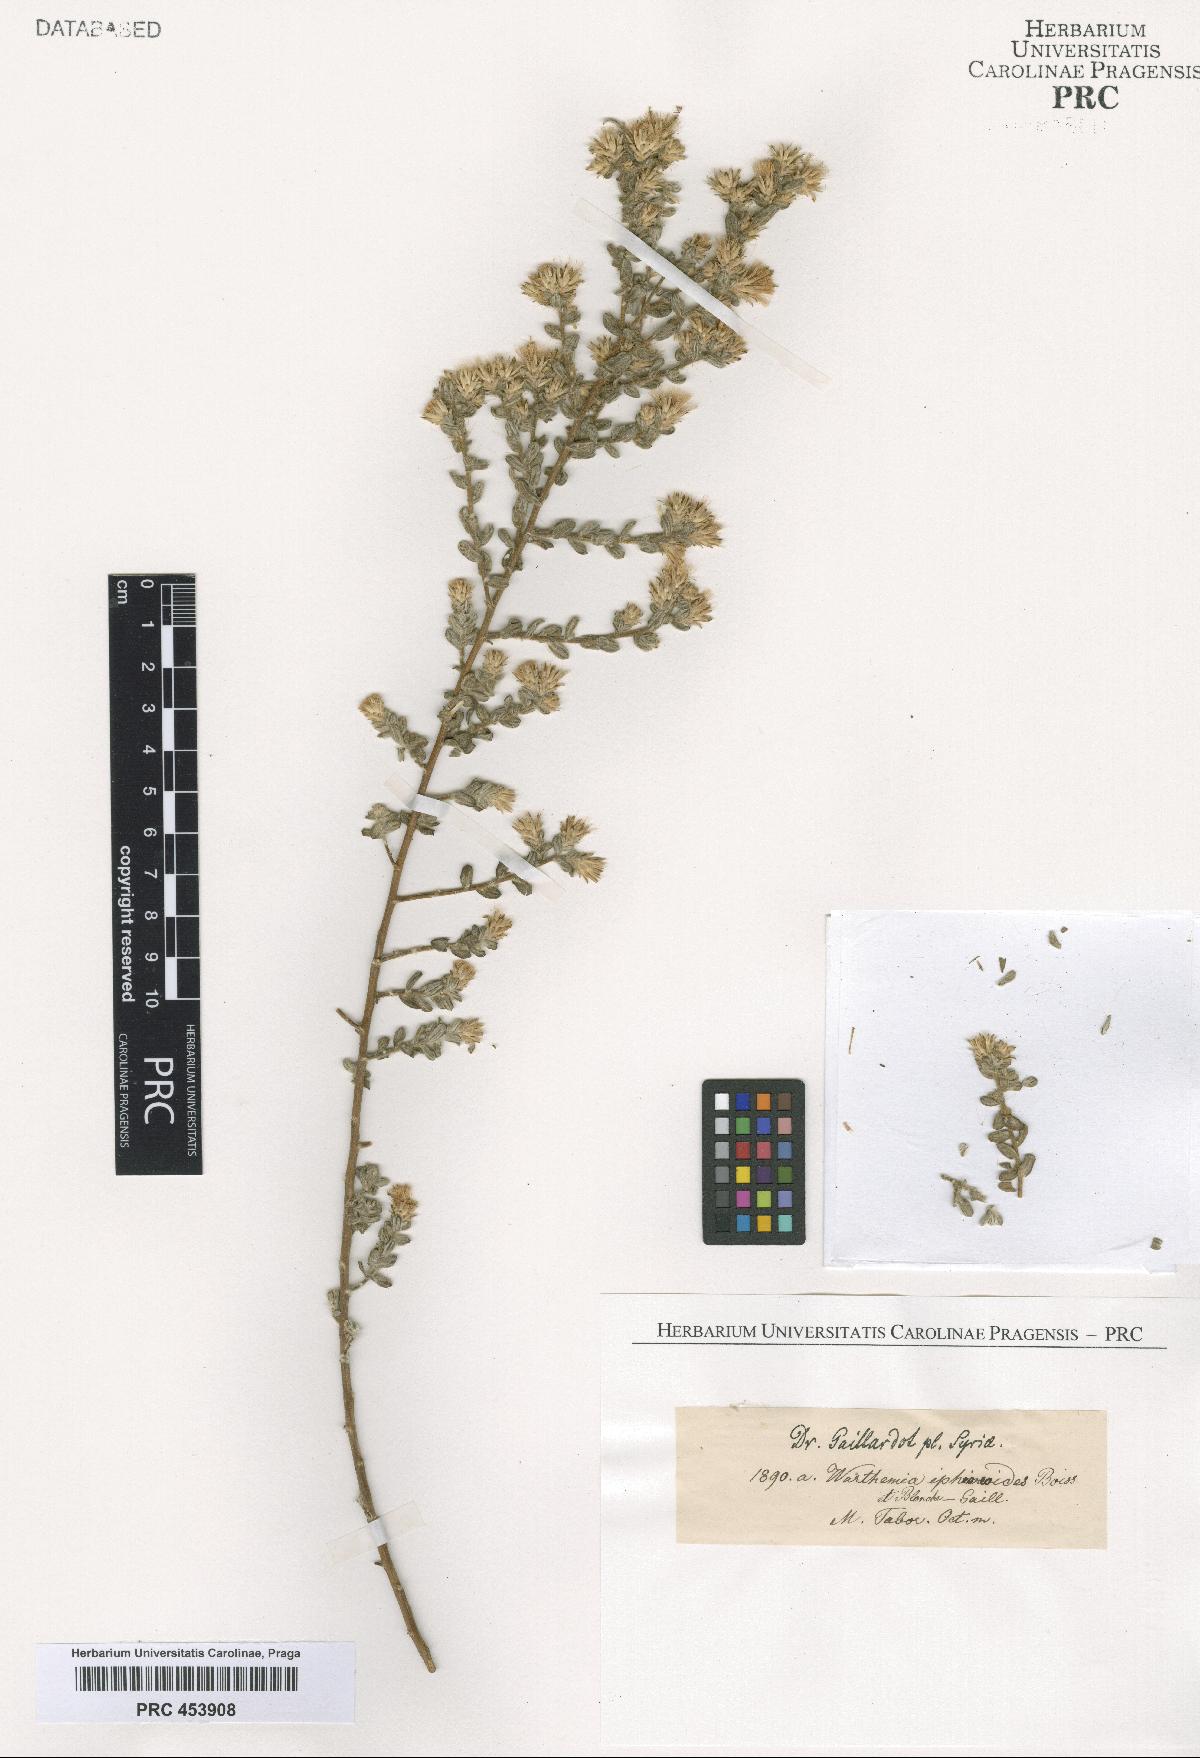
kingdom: Plantae
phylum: Tracheophyta
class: Magnoliopsida
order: Asterales
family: Asteraceae
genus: Chiliadenus
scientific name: Chiliadenus iphionoides
